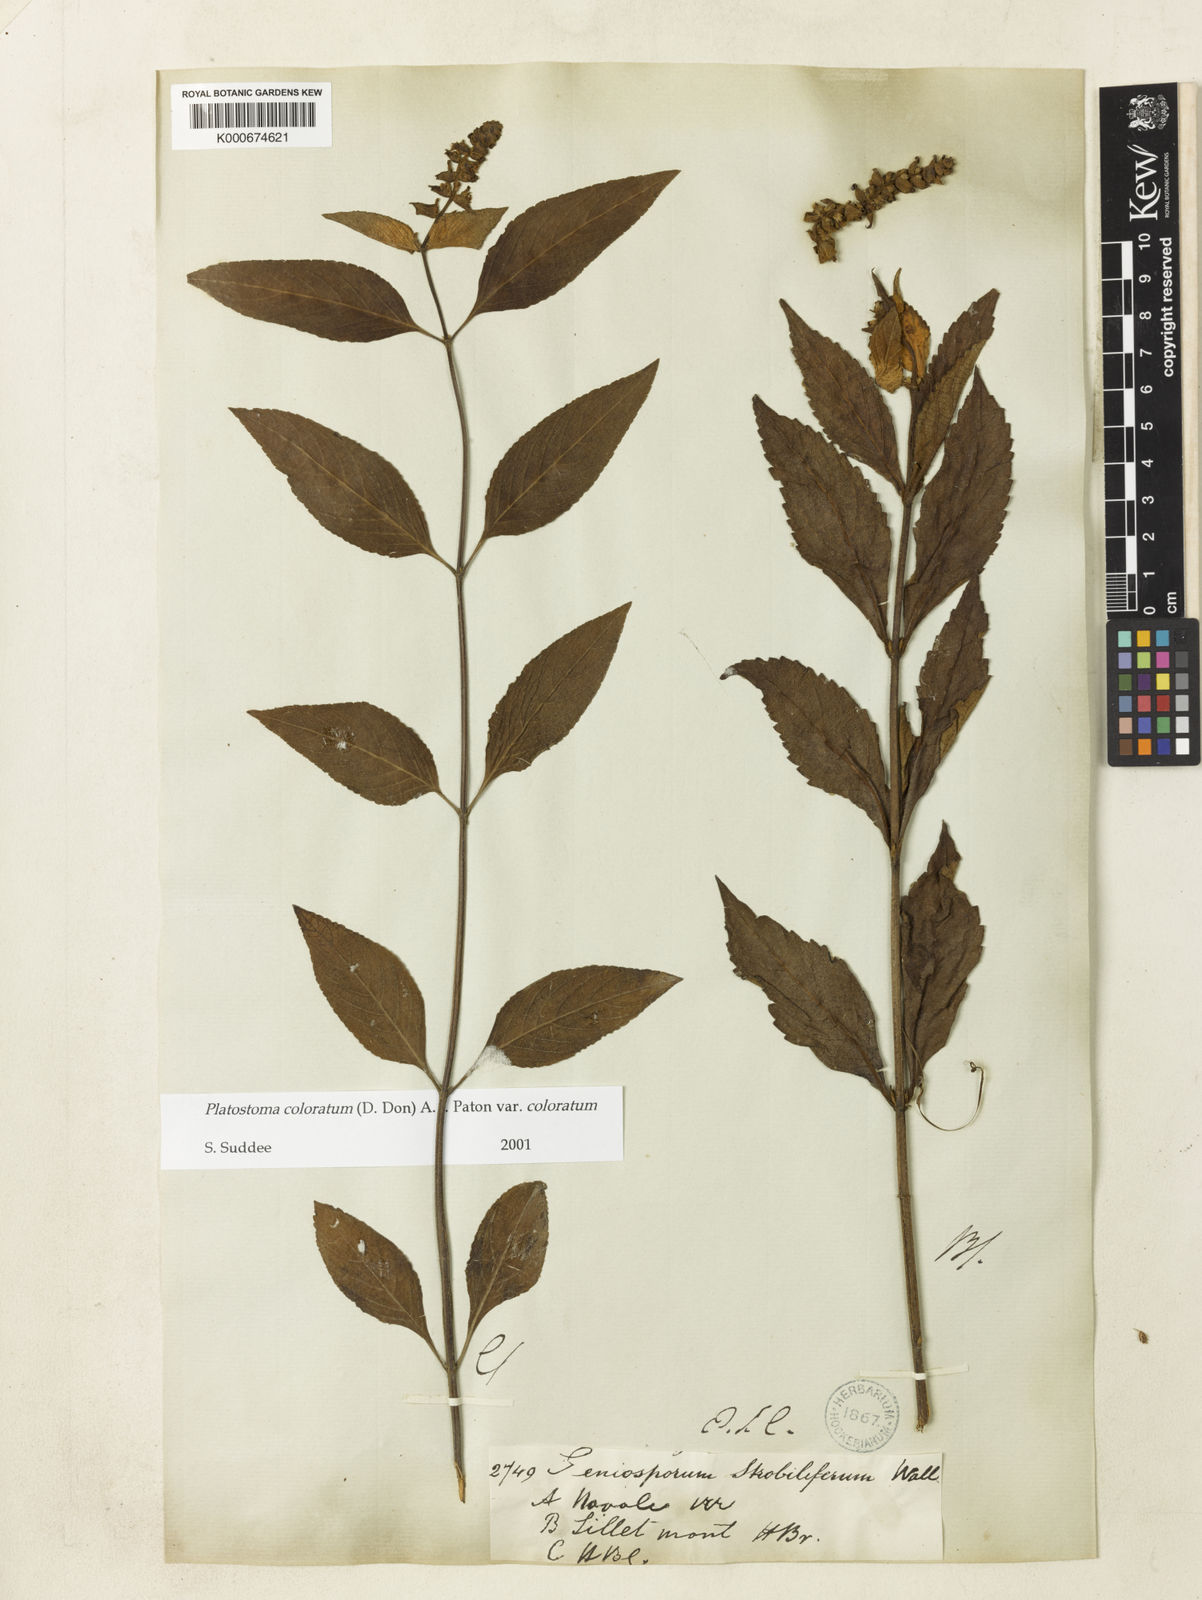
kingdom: Plantae
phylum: Tracheophyta
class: Magnoliopsida
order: Lamiales
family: Lamiaceae
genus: Platostoma
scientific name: Platostoma coloratum
